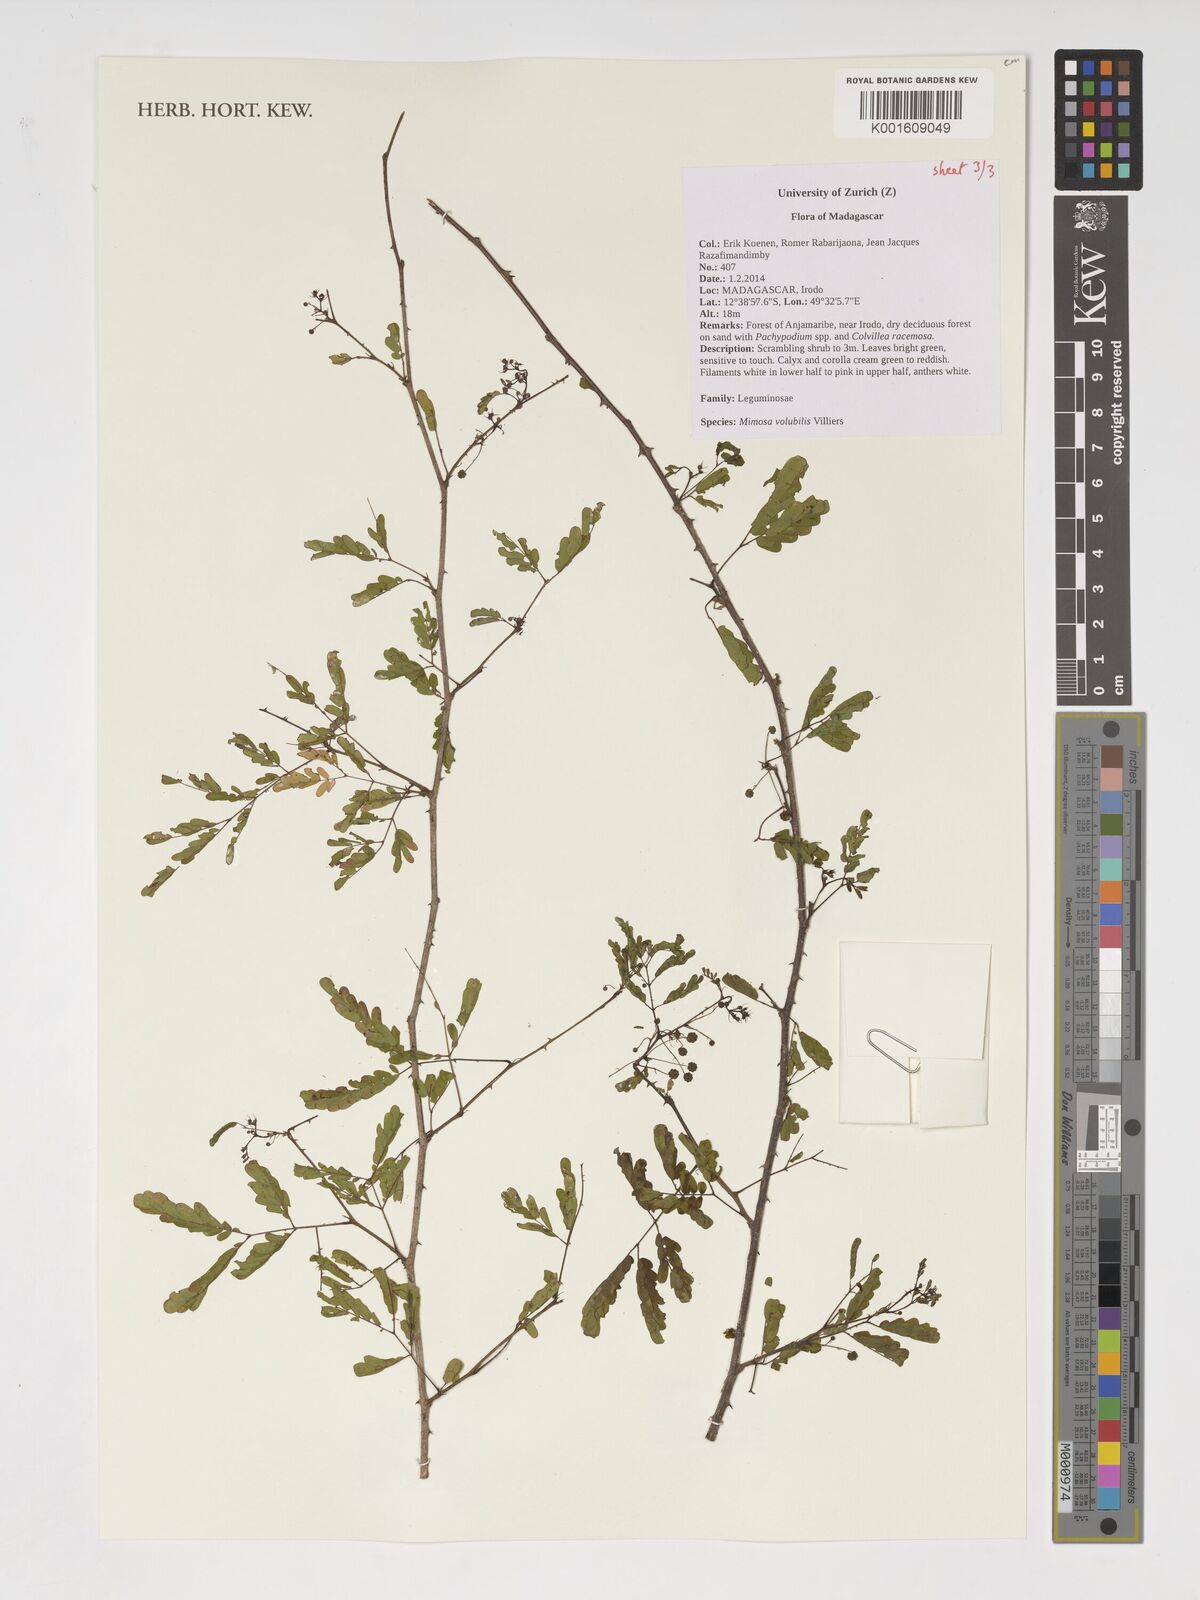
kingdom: Plantae
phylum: Tracheophyta
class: Magnoliopsida
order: Fabales
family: Fabaceae
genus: Mimosa
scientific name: Mimosa volubilis
